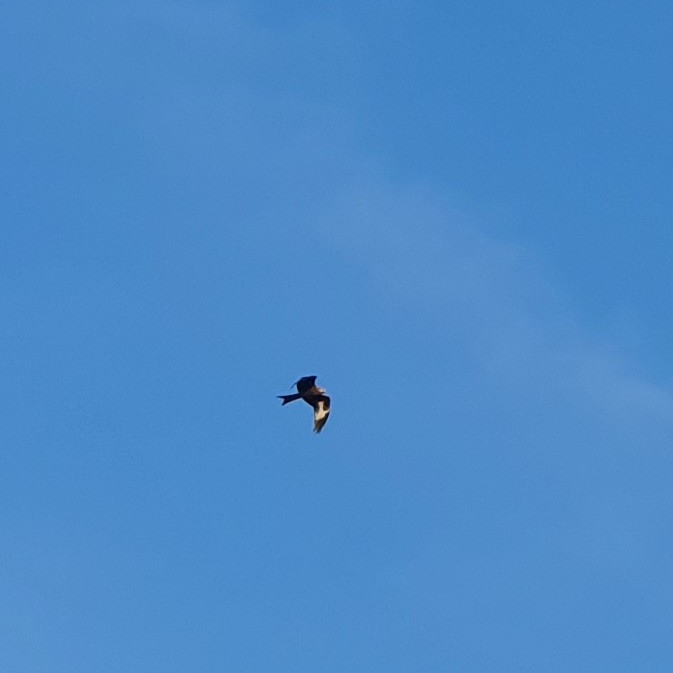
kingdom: Animalia
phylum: Chordata
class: Aves
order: Accipitriformes
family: Accipitridae
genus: Milvus
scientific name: Milvus milvus
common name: Rød glente
